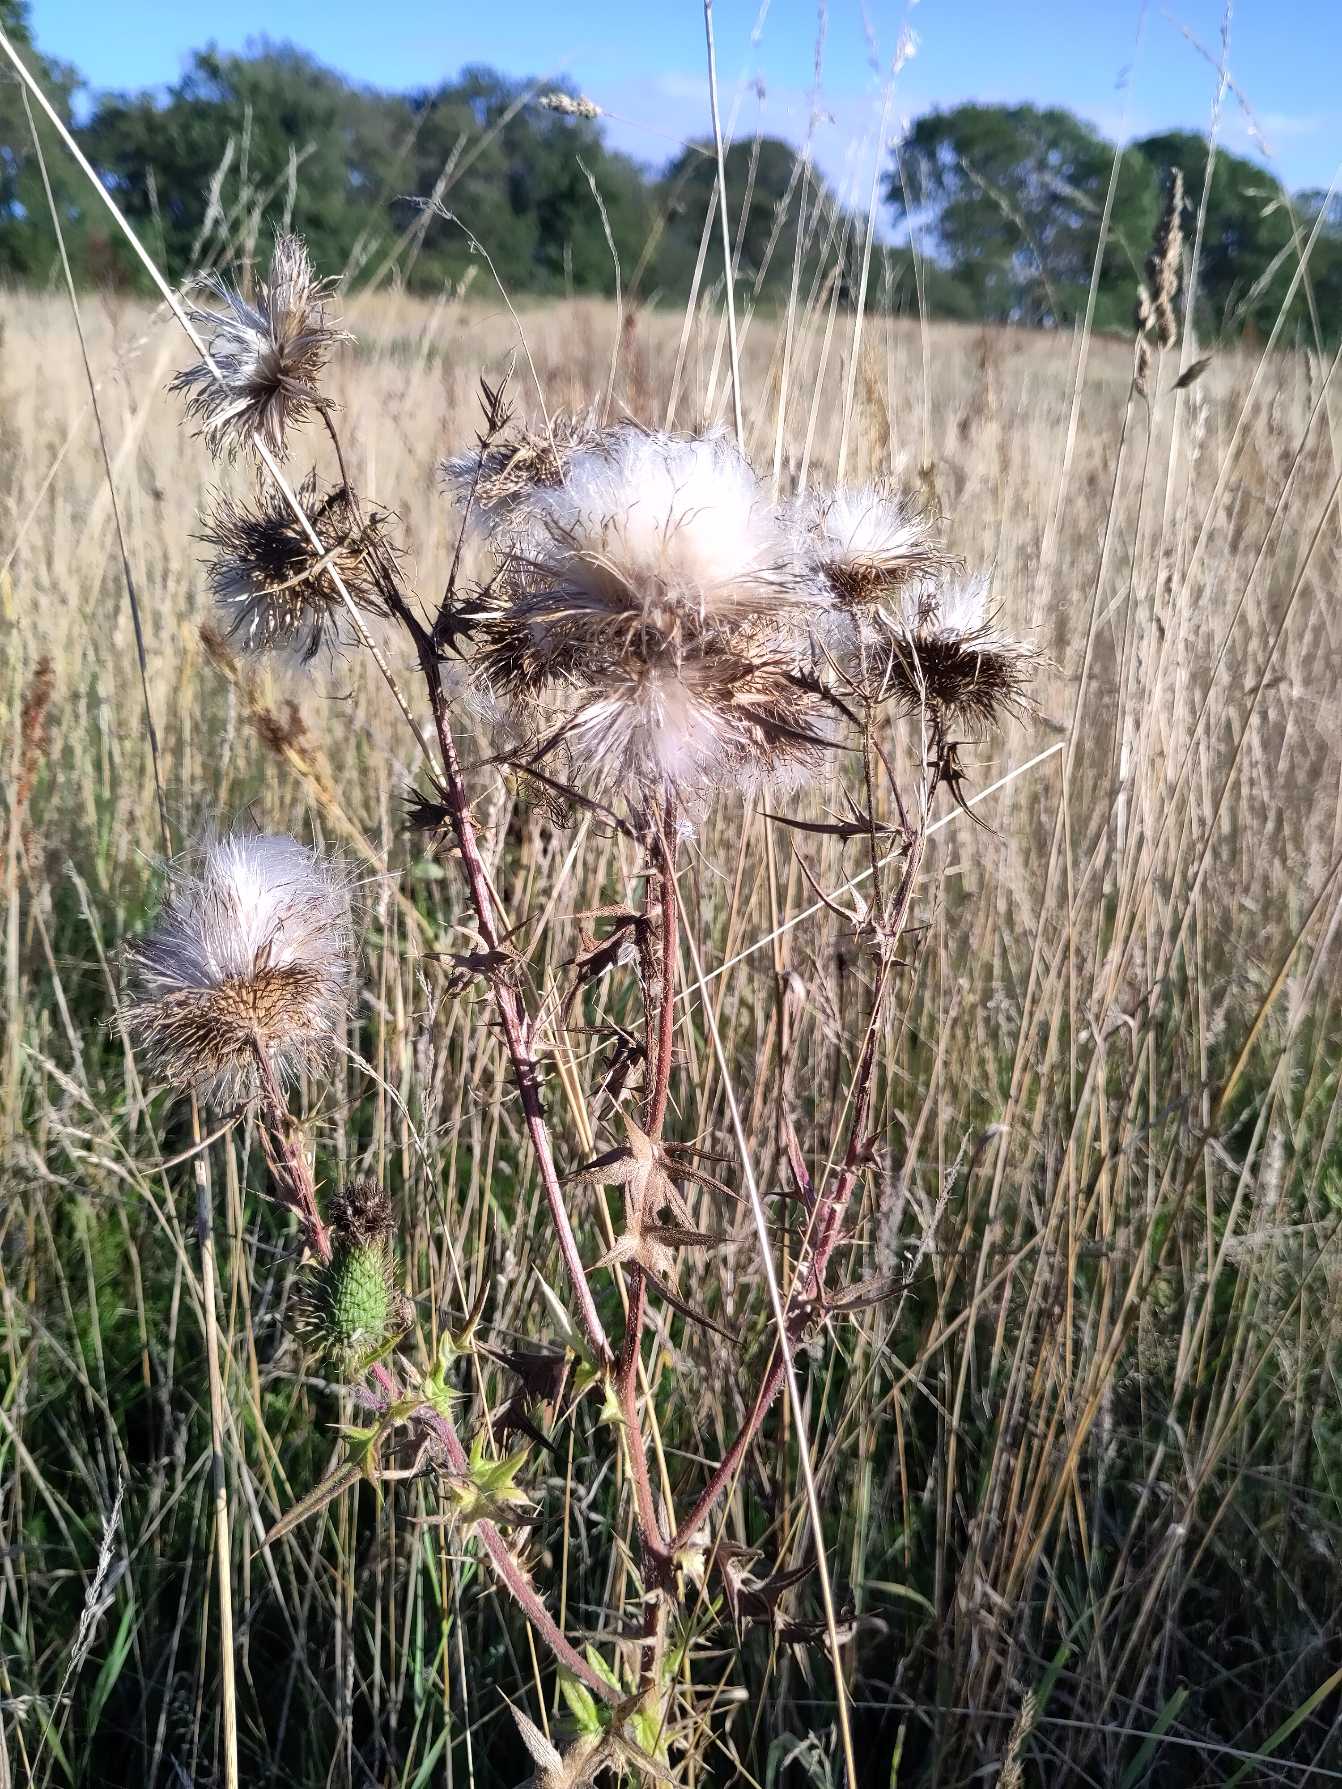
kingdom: Plantae
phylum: Tracheophyta
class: Magnoliopsida
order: Asterales
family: Asteraceae
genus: Cirsium
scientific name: Cirsium vulgare
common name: Horse-tidsel
